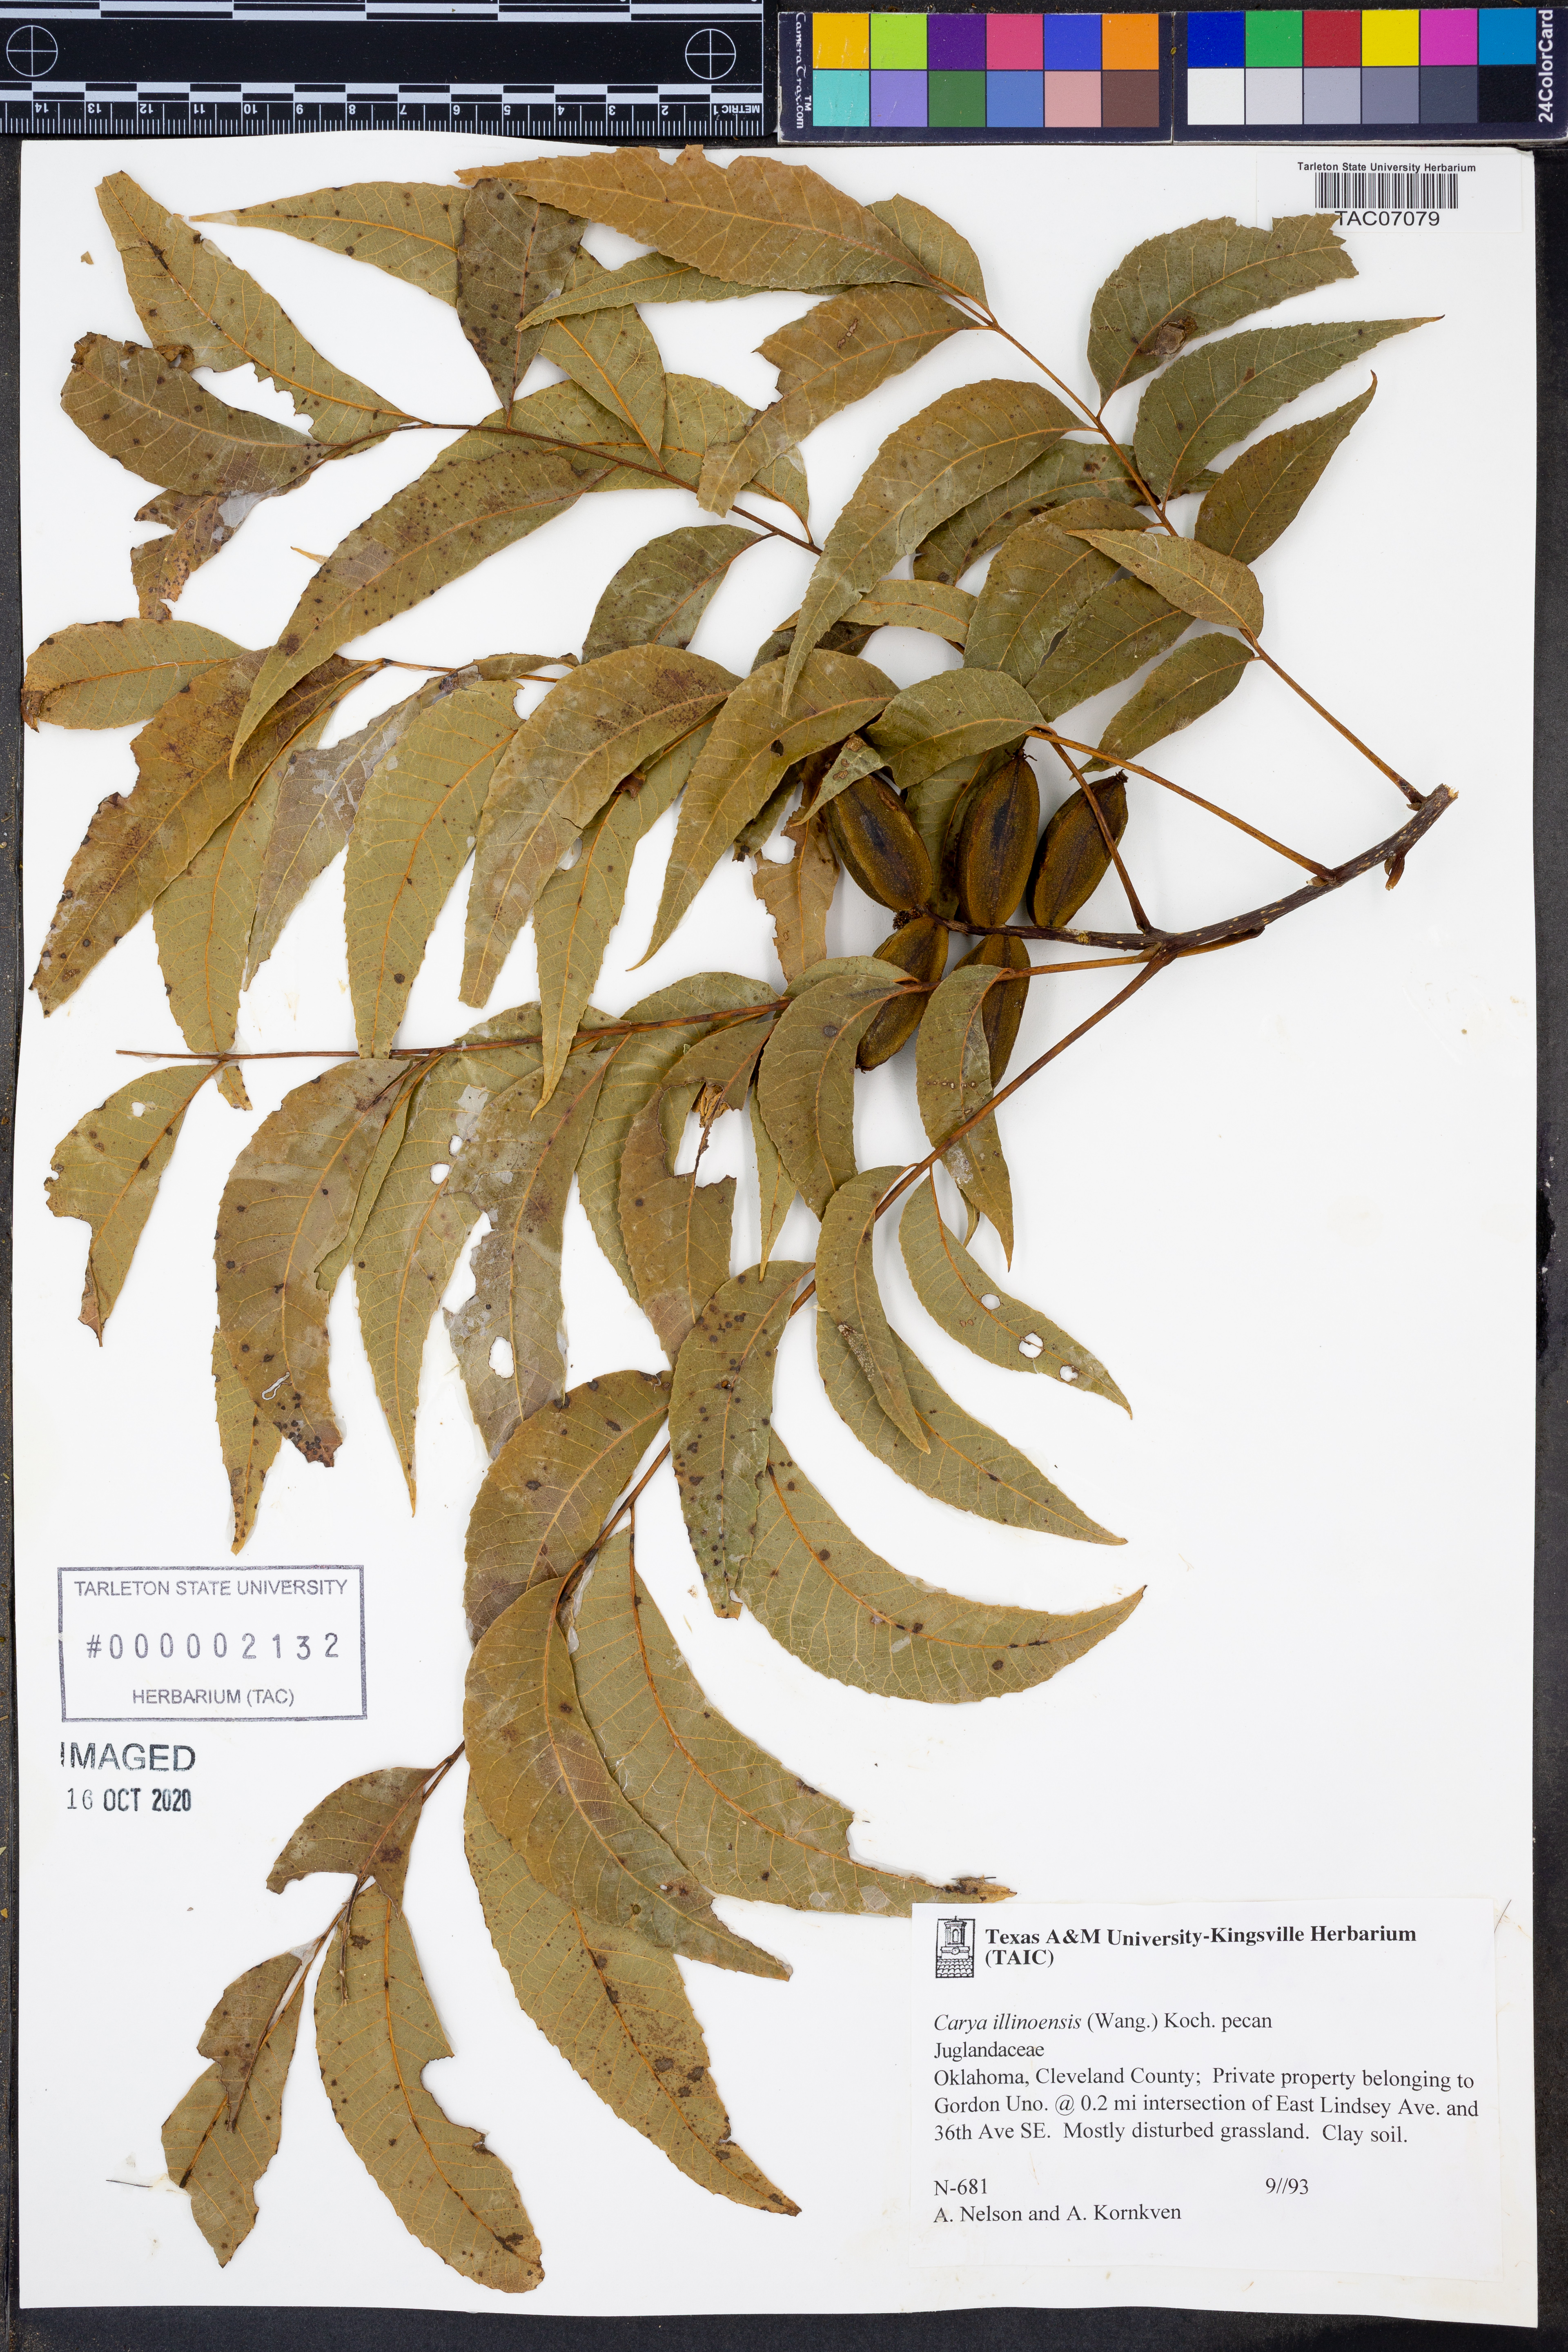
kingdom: Plantae
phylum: Tracheophyta
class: Magnoliopsida
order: Fagales
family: Juglandaceae
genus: Carya
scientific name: Carya illinoinensis
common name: Pecan
